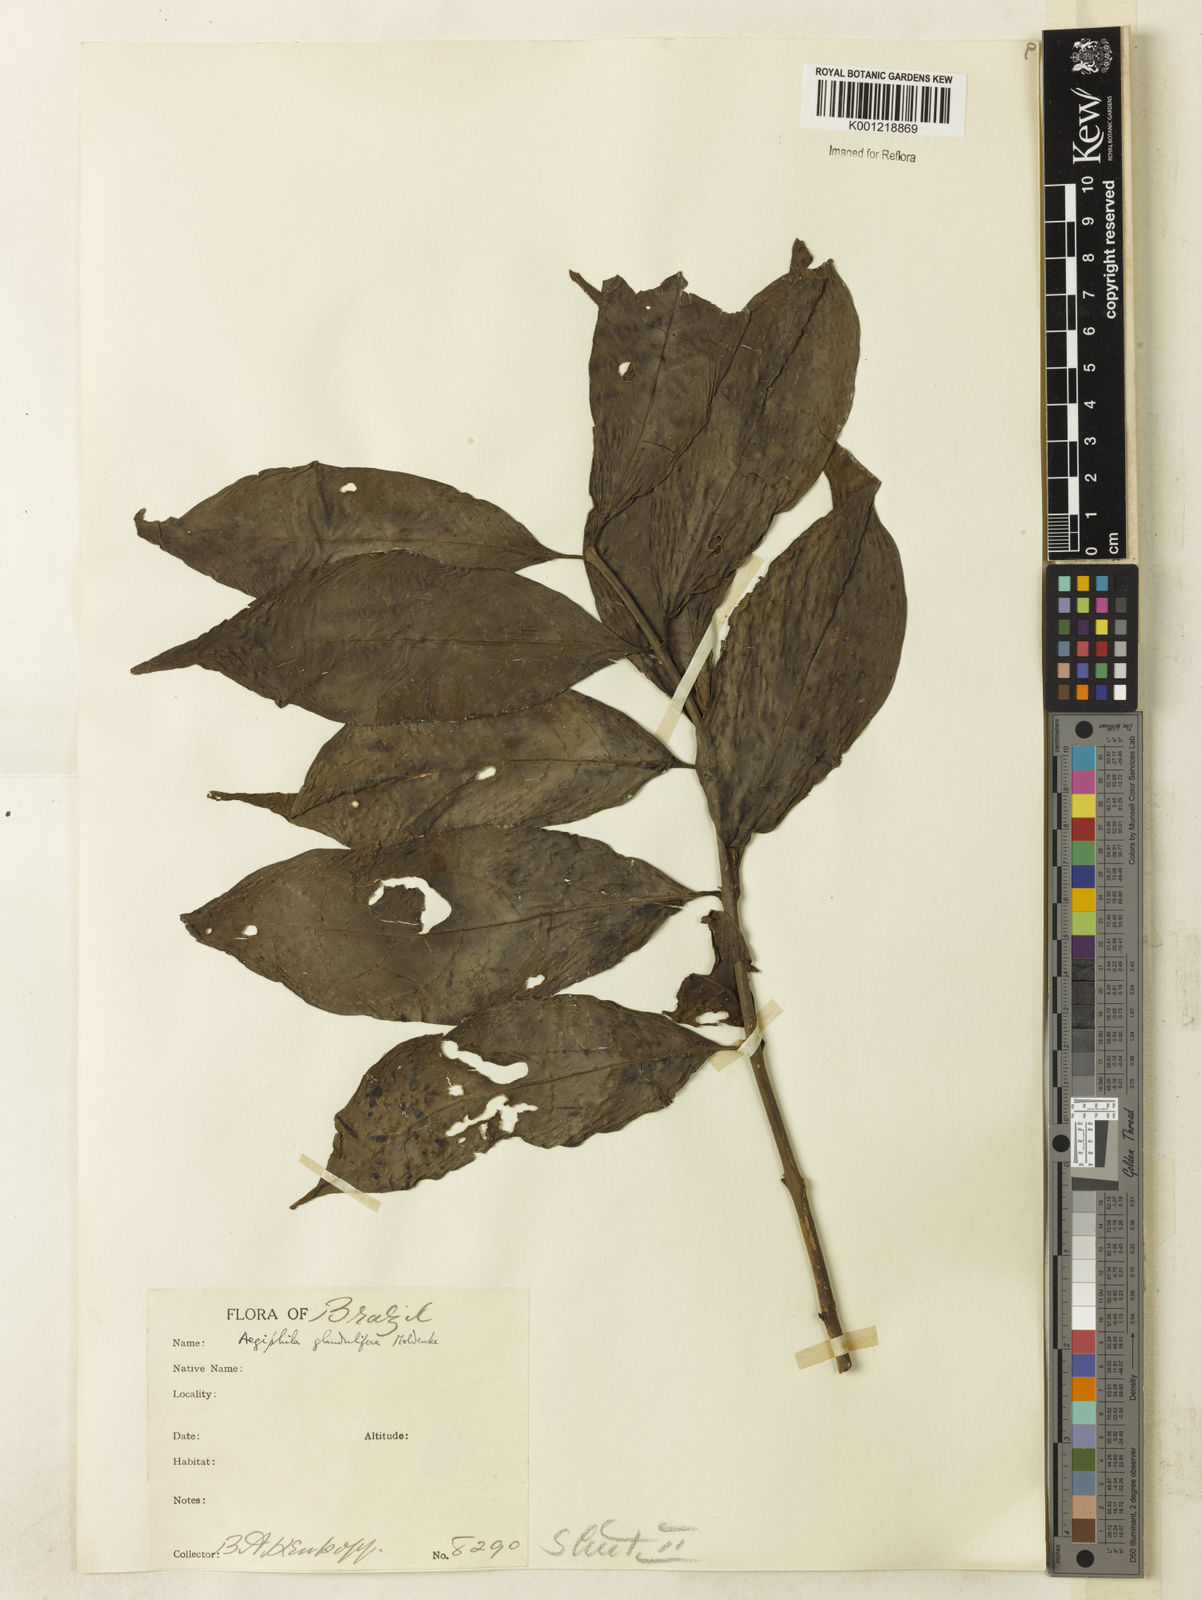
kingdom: Plantae
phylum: Tracheophyta
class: Magnoliopsida
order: Lamiales
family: Lamiaceae
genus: Aegiphila
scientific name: Aegiphila panamensis
